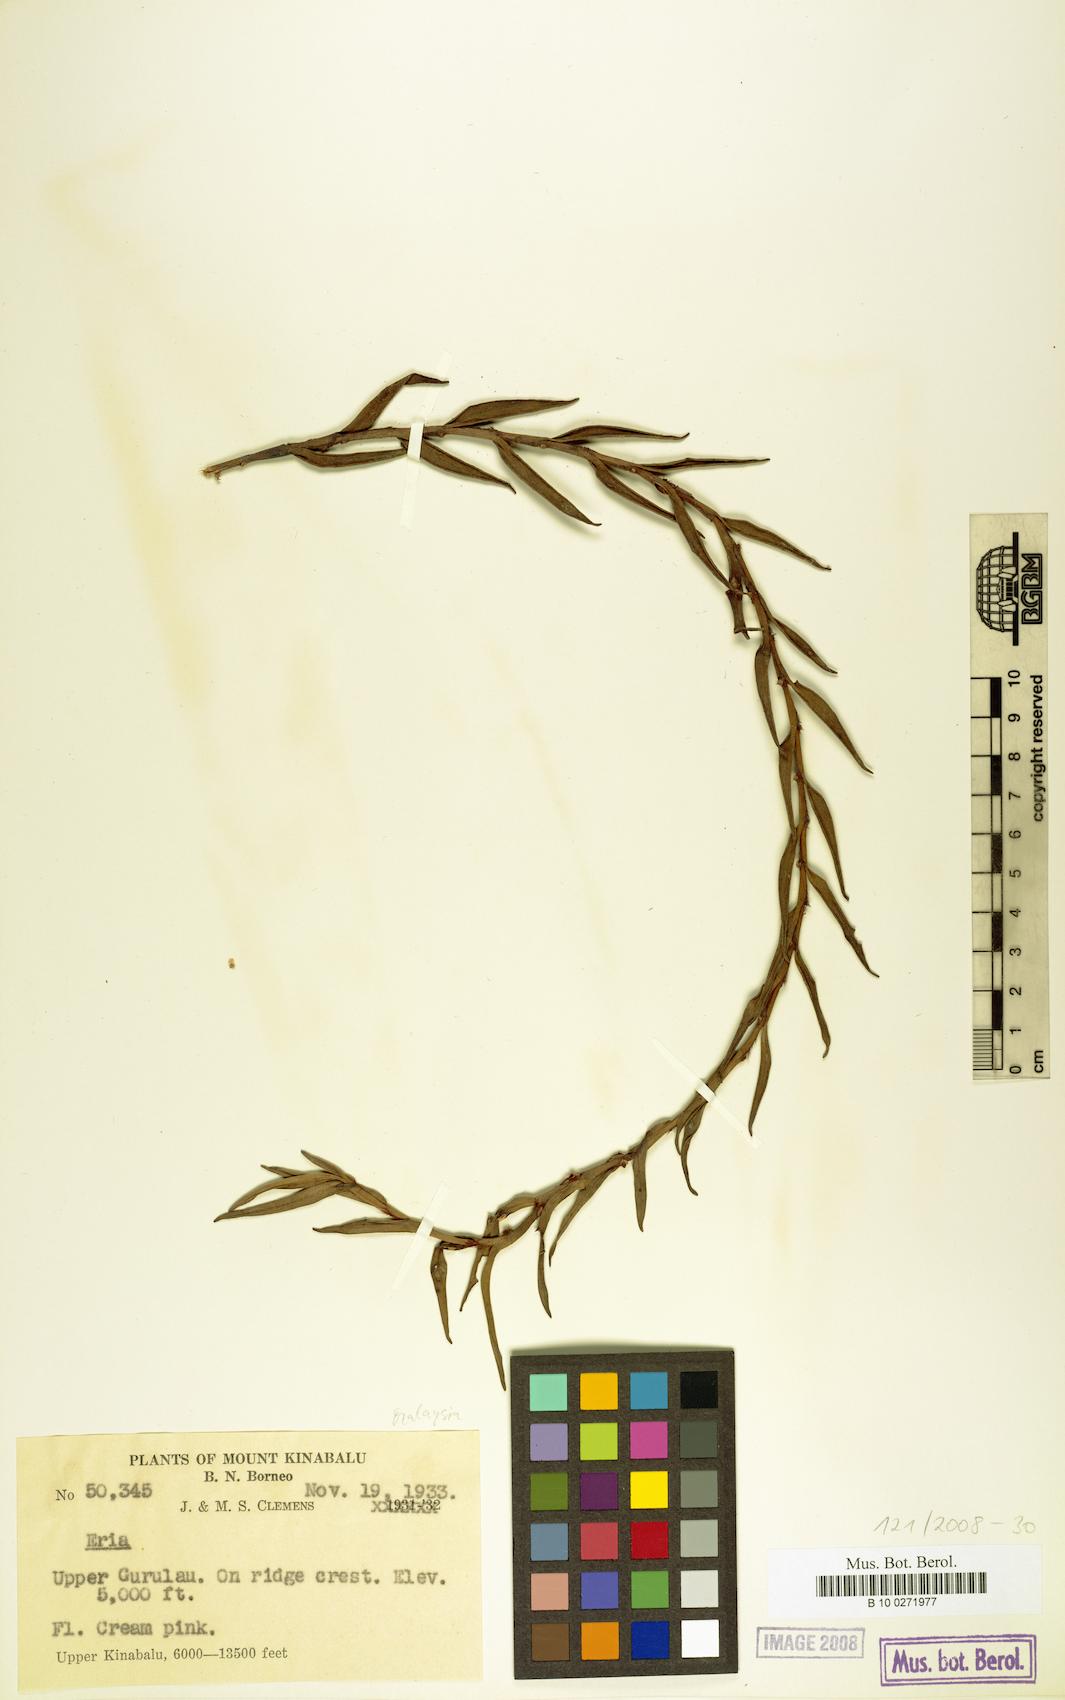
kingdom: Plantae
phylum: Tracheophyta
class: Liliopsida
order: Asparagales
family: Orchidaceae
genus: Eria
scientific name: Eria
